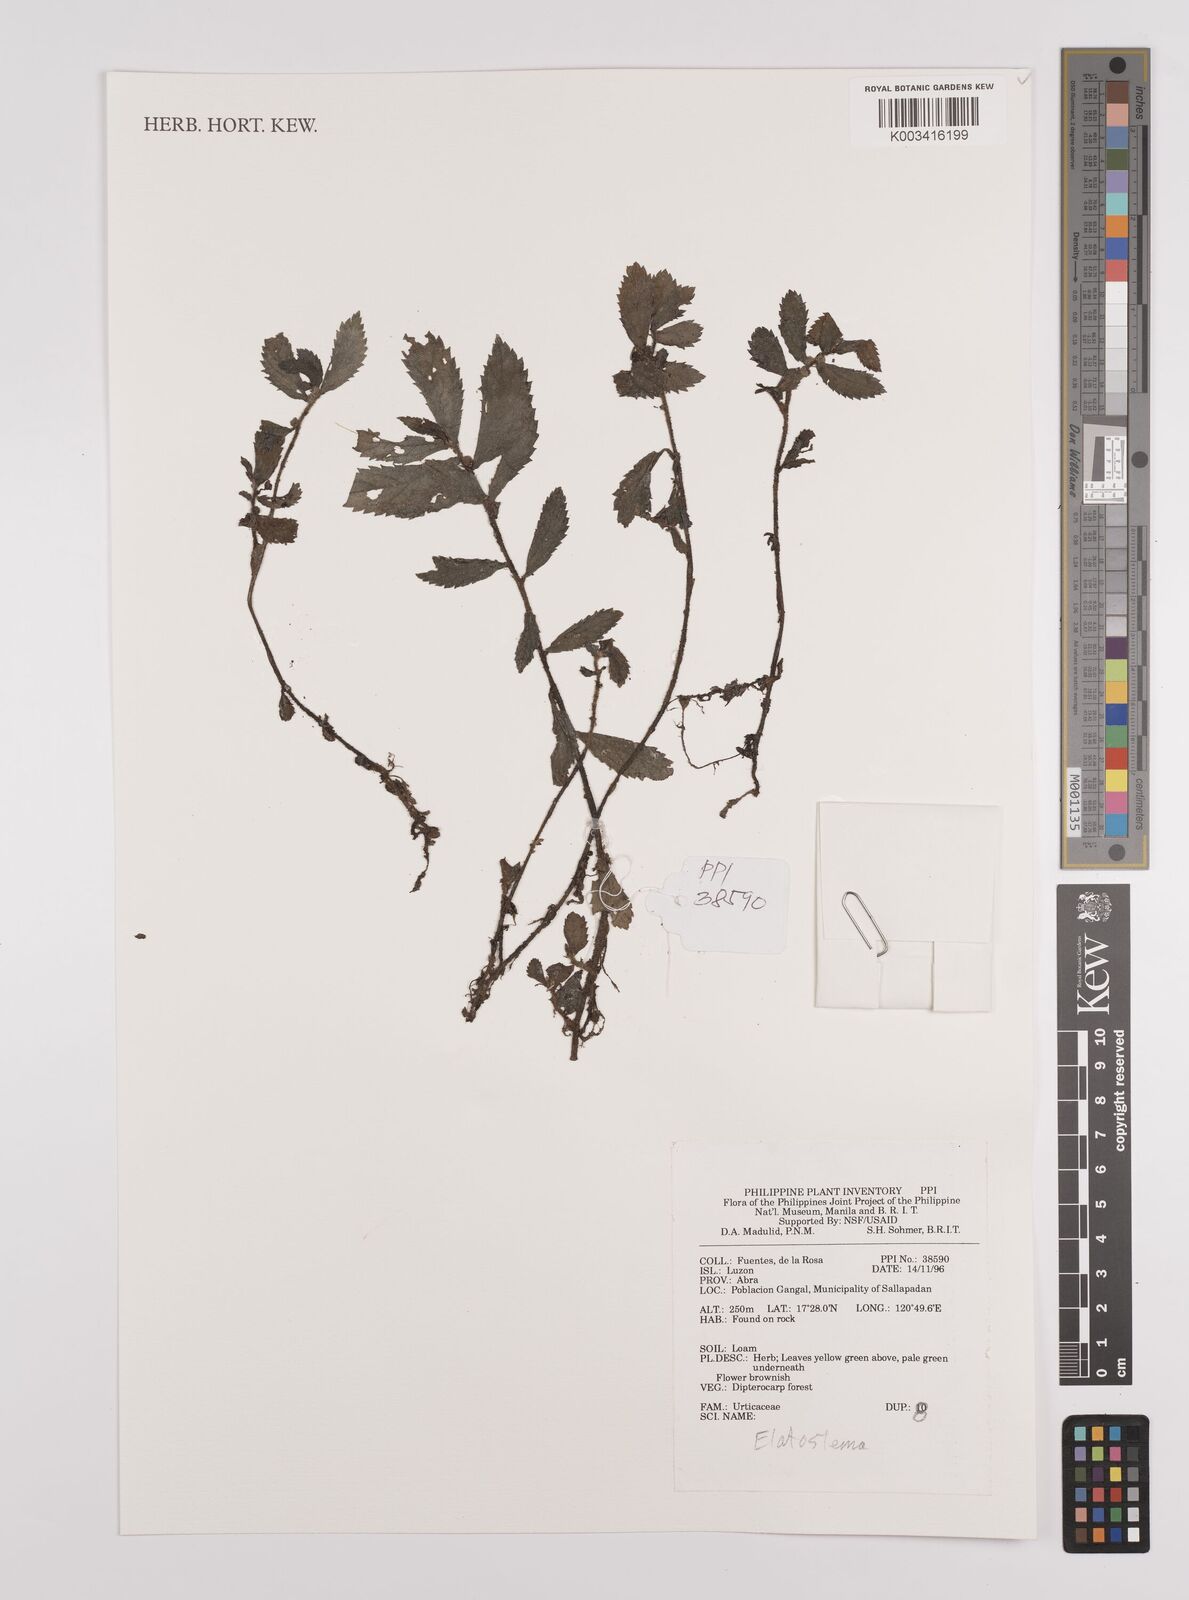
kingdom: Plantae
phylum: Tracheophyta
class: Magnoliopsida
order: Rosales
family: Urticaceae
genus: Elatostema
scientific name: Elatostema
